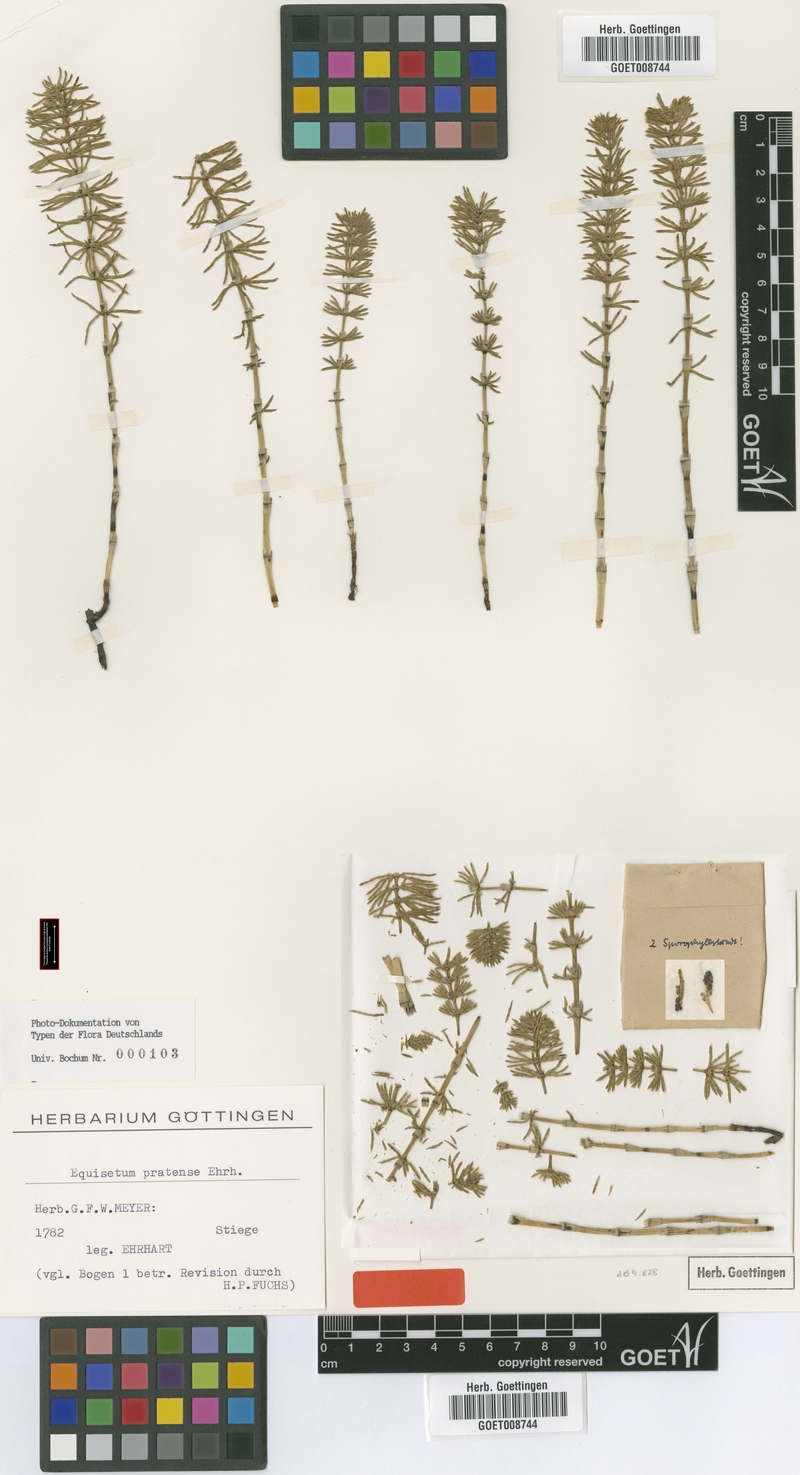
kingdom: Plantae
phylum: Tracheophyta
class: Polypodiopsida
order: Equisetales
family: Equisetaceae
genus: Equisetum
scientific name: Equisetum pratense
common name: Meadow horsetail
